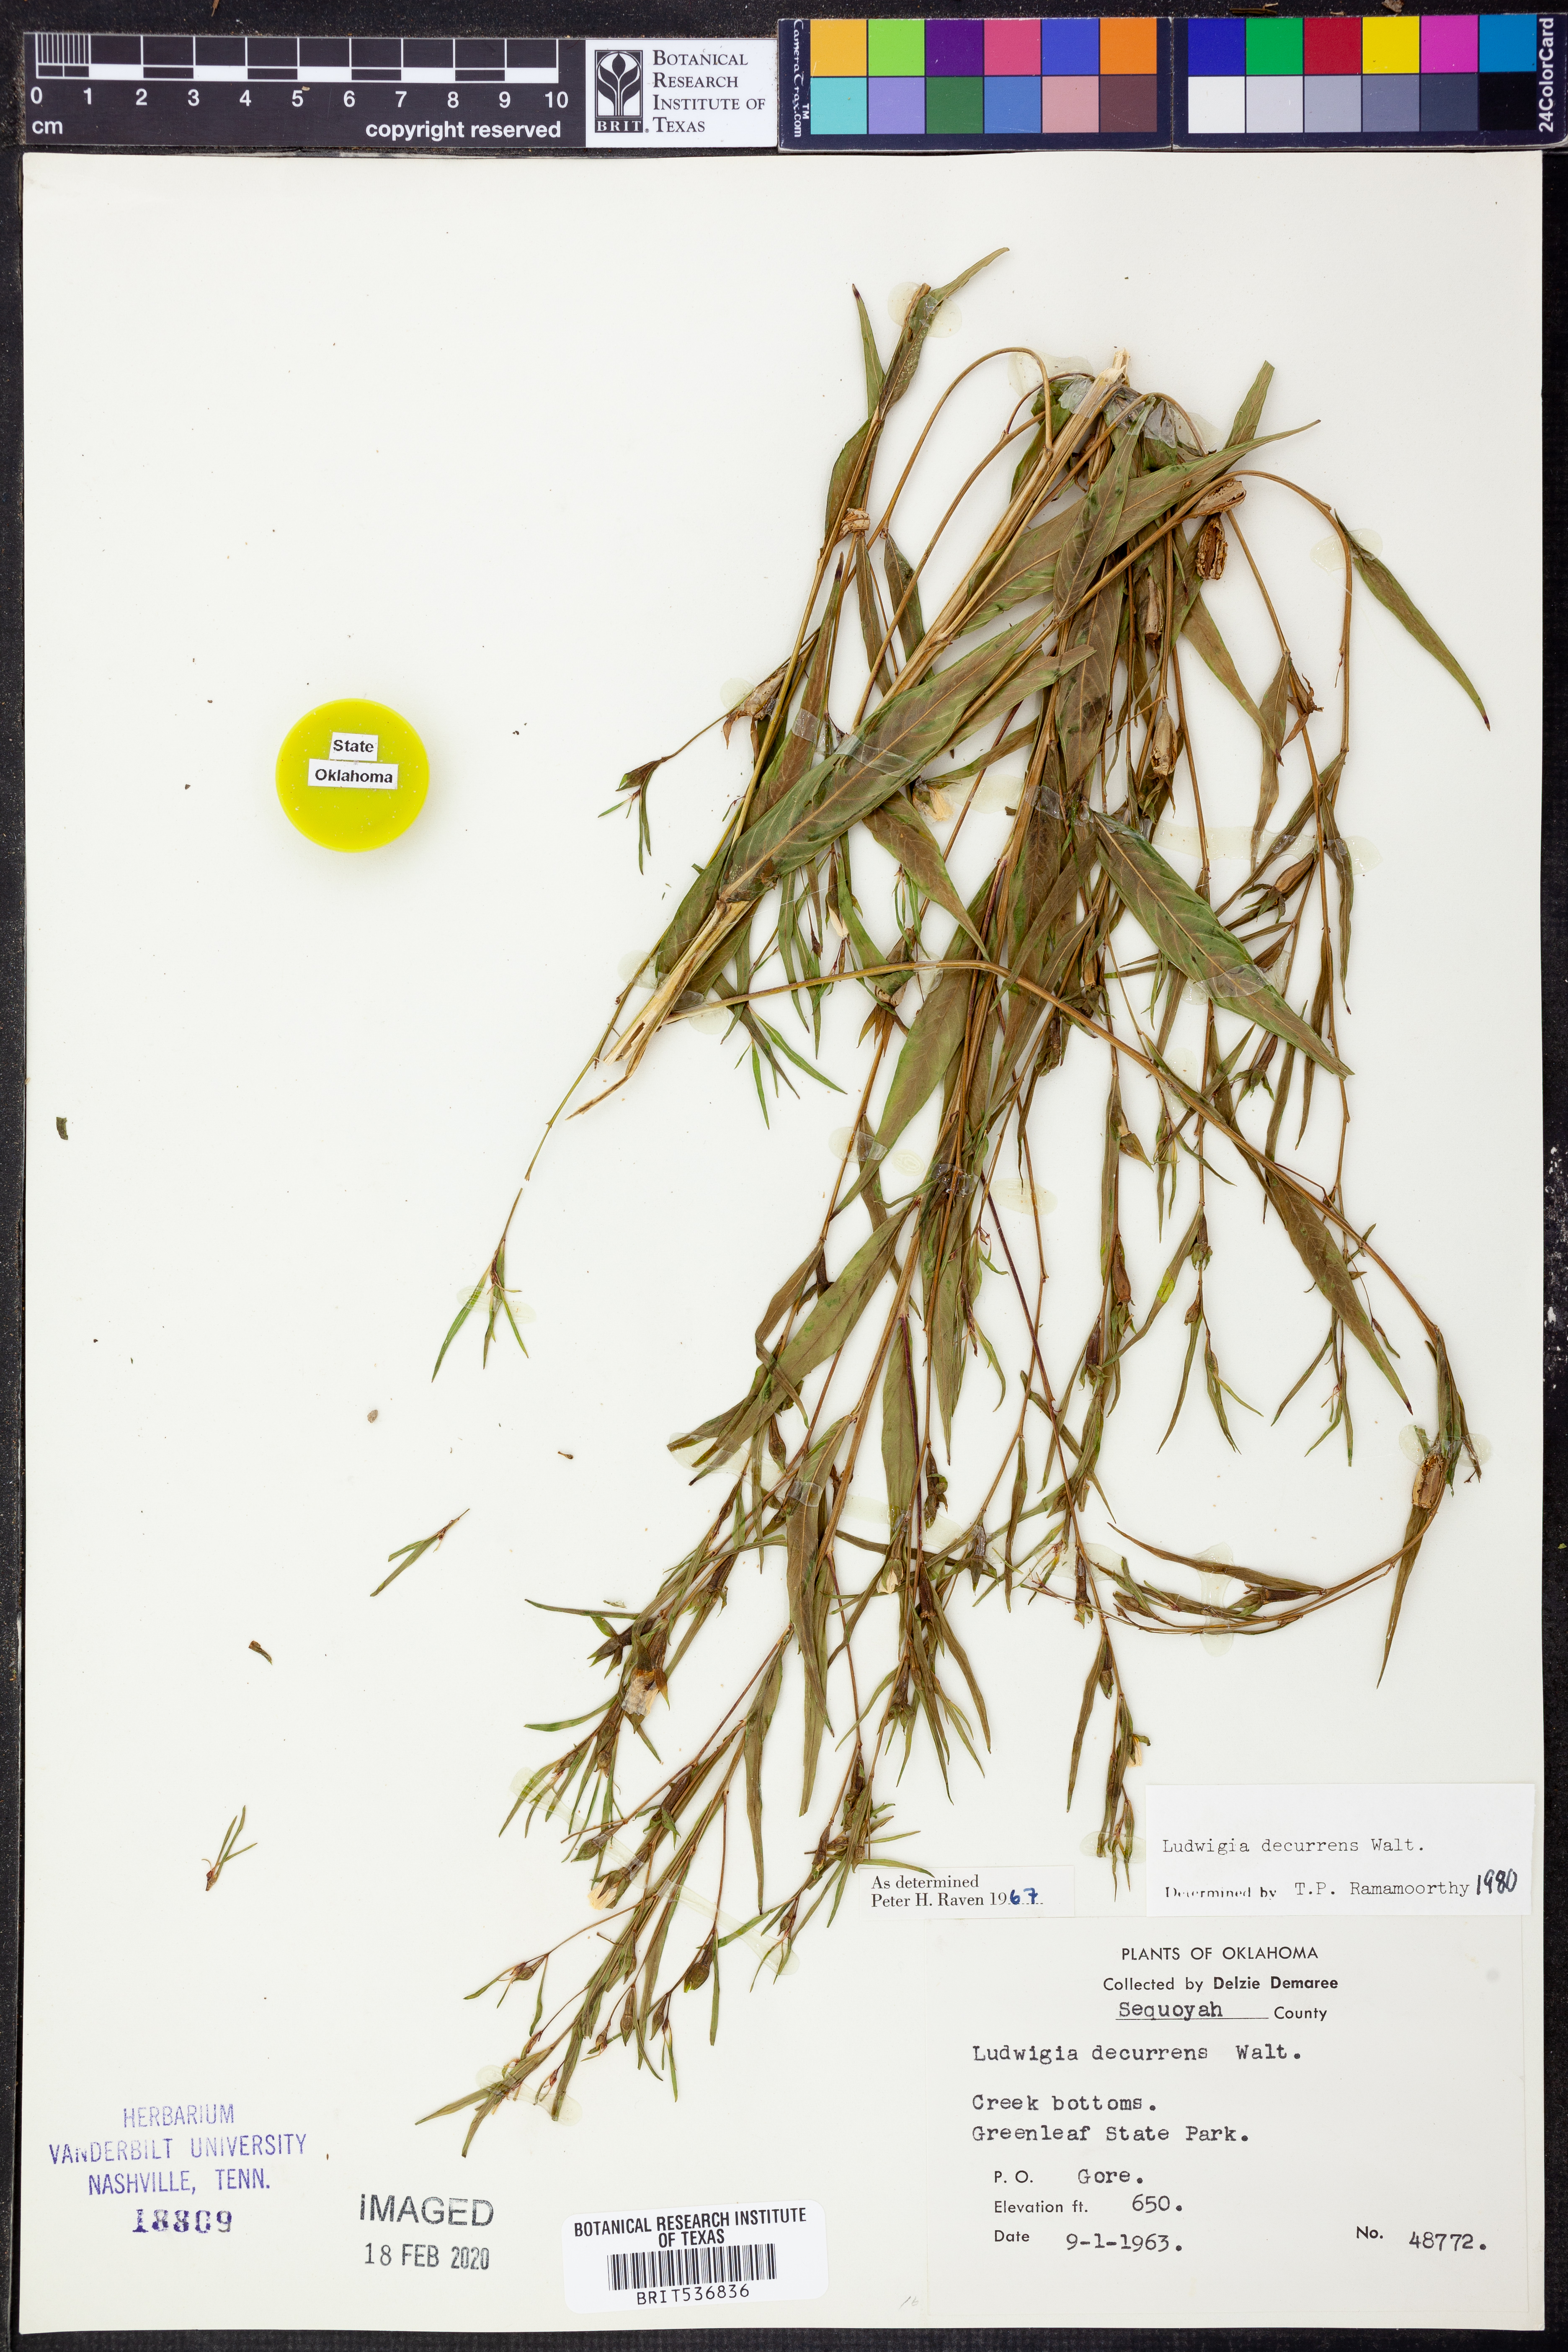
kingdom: Plantae
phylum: Tracheophyta
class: Magnoliopsida
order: Myrtales
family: Onagraceae
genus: Ludwigia
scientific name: Ludwigia decurrens
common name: Winged water-primrose
